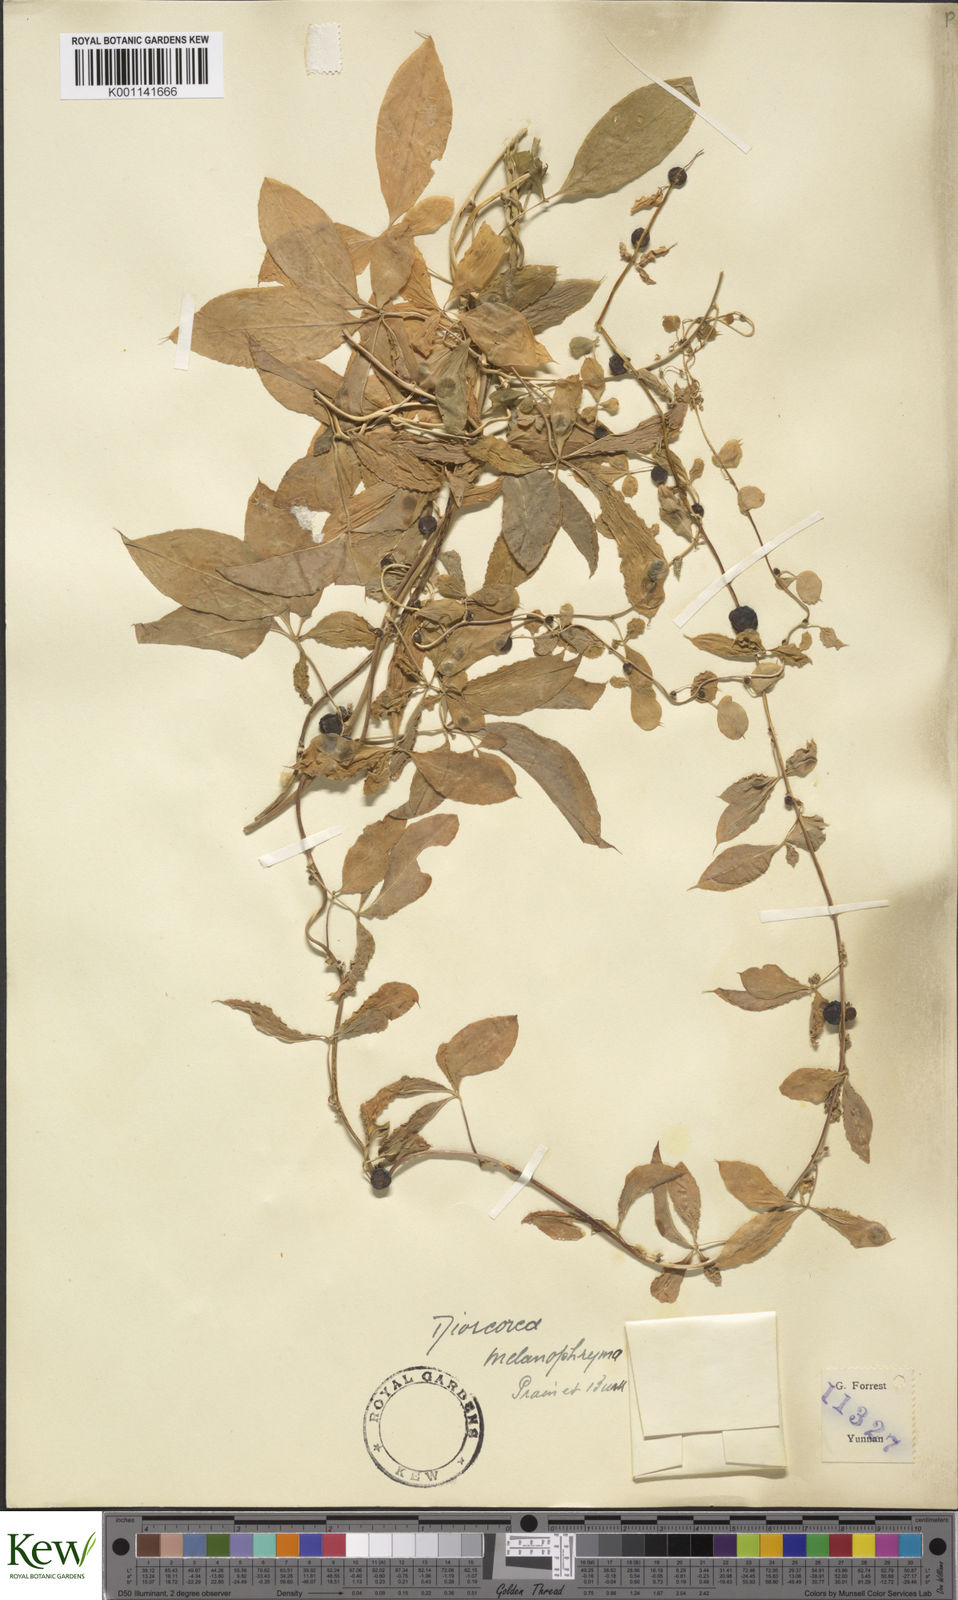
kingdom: Plantae
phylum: Tracheophyta
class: Liliopsida
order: Dioscoreales
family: Dioscoreaceae
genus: Dioscorea
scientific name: Dioscorea melanophyma
